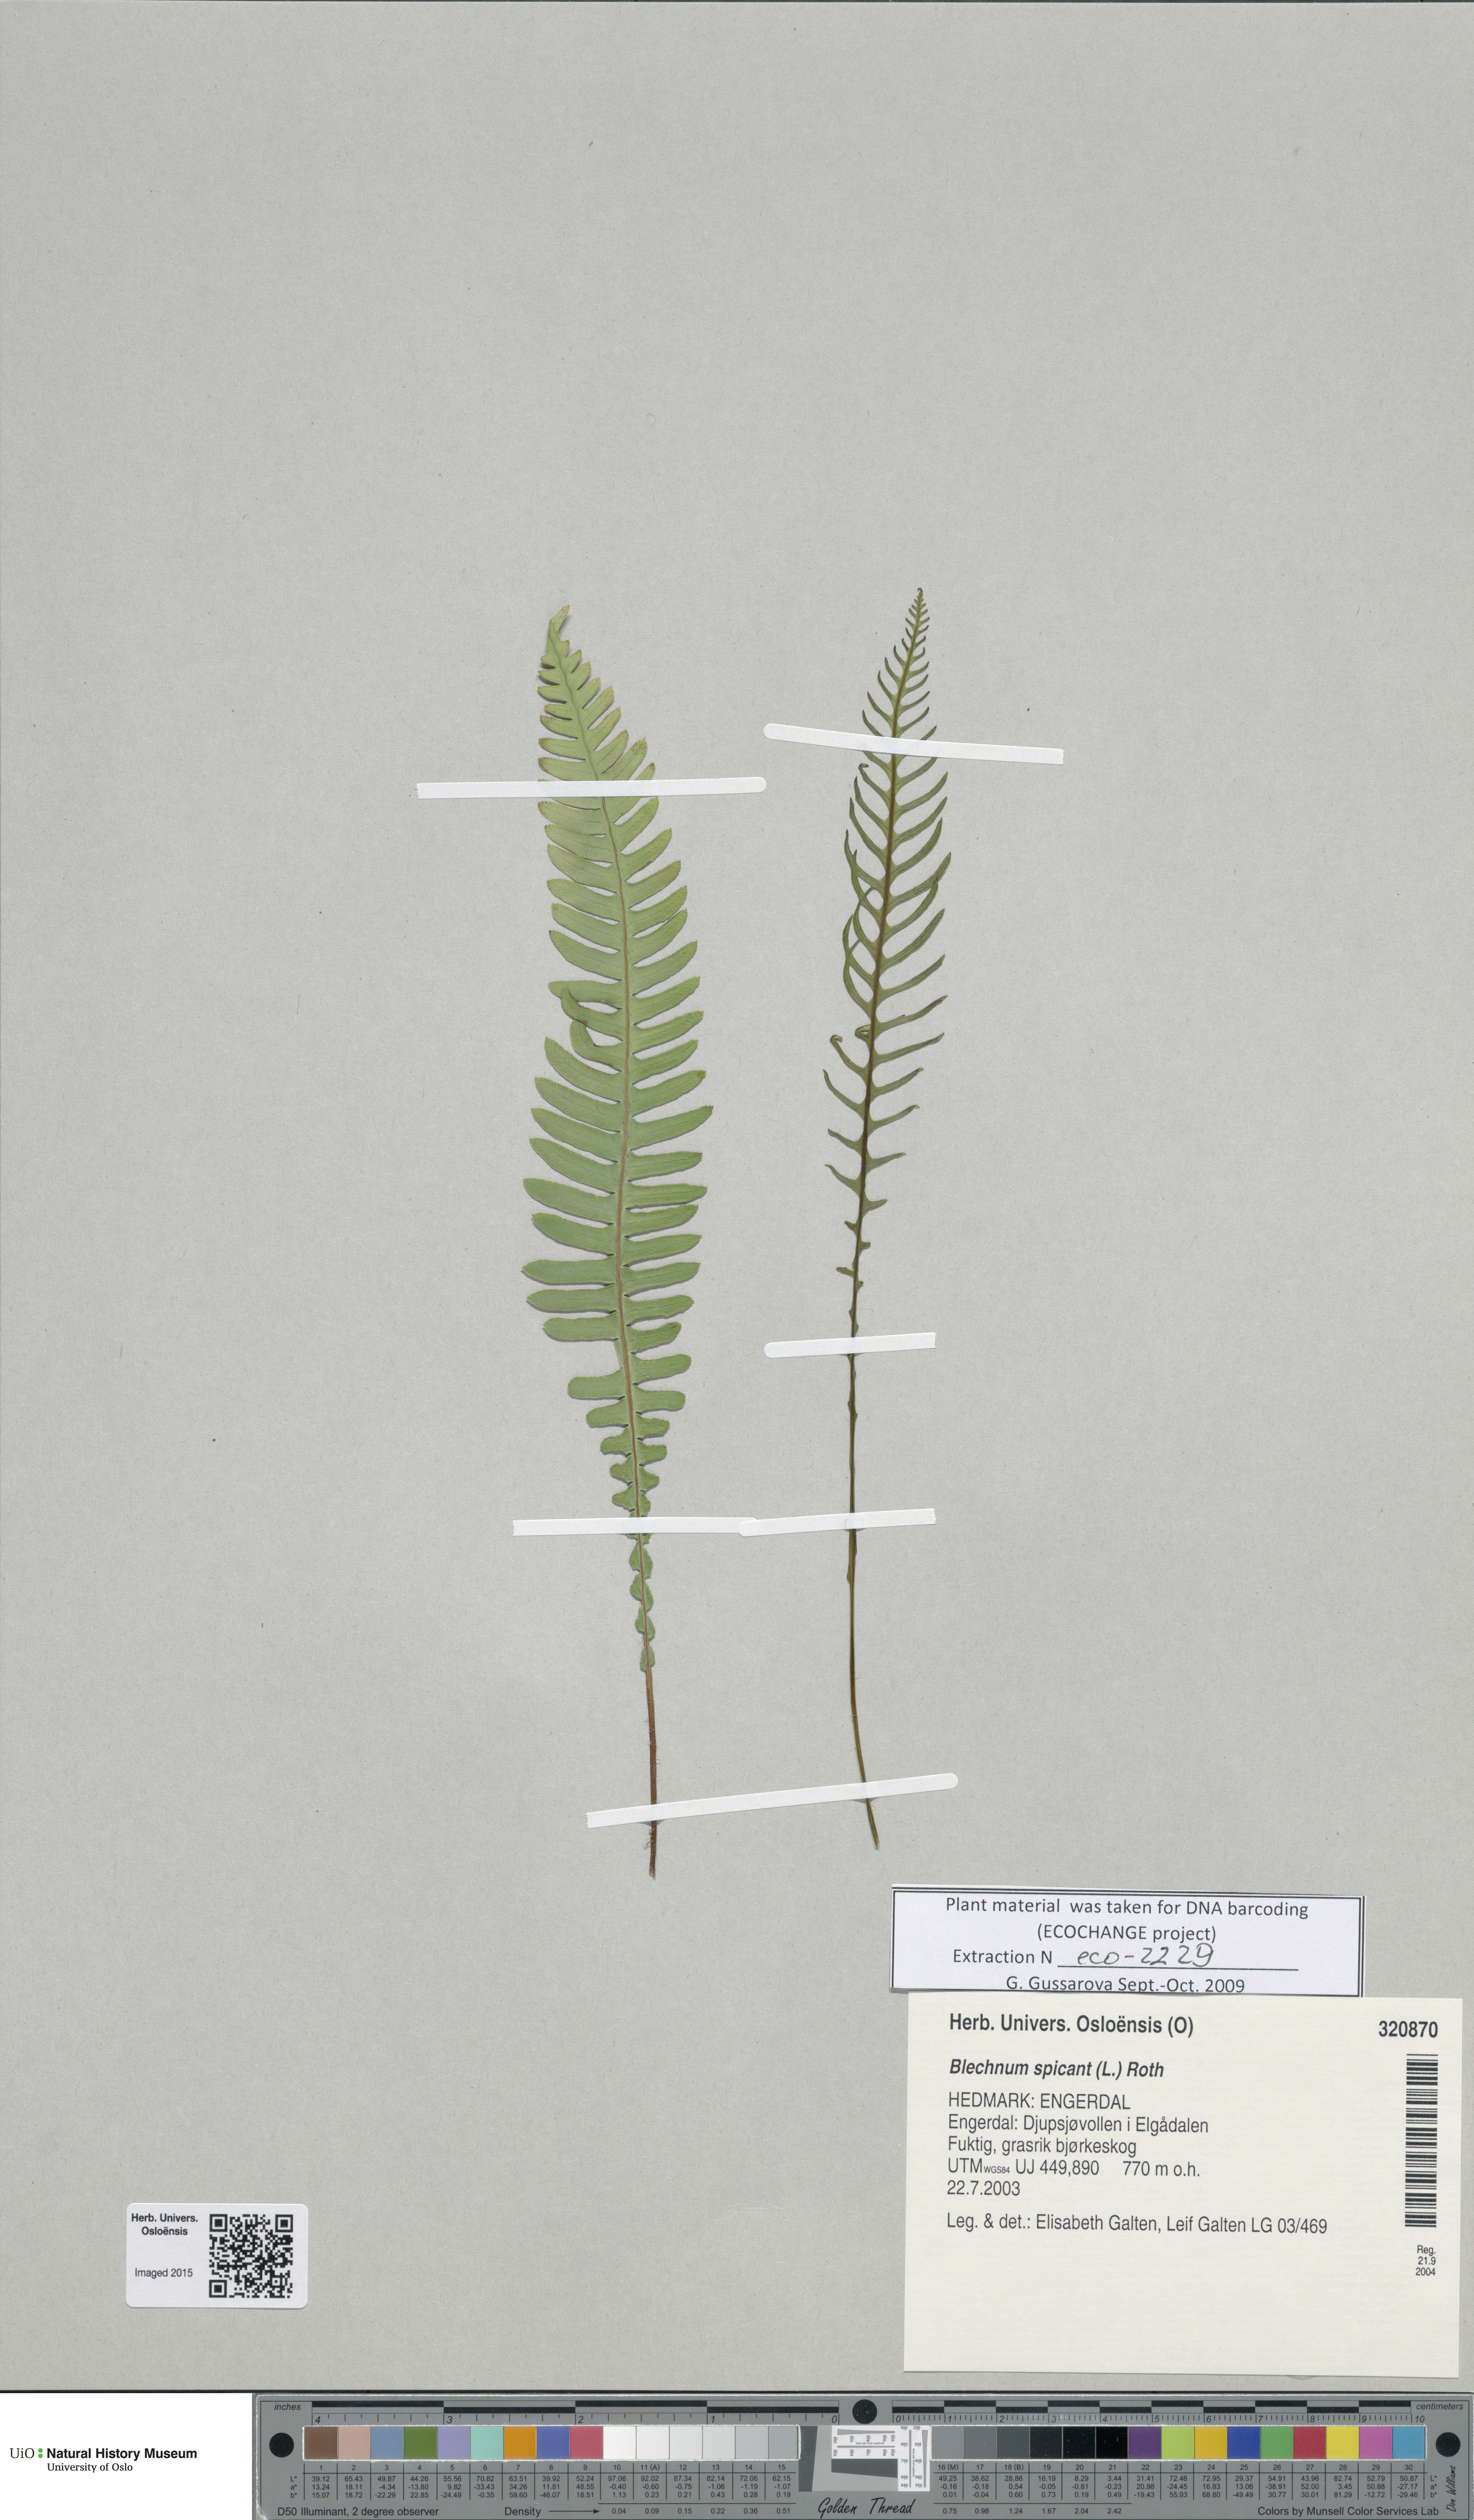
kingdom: Plantae
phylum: Tracheophyta
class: Polypodiopsida
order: Polypodiales
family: Blechnaceae
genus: Struthiopteris
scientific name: Struthiopteris spicant
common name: Deer fern
